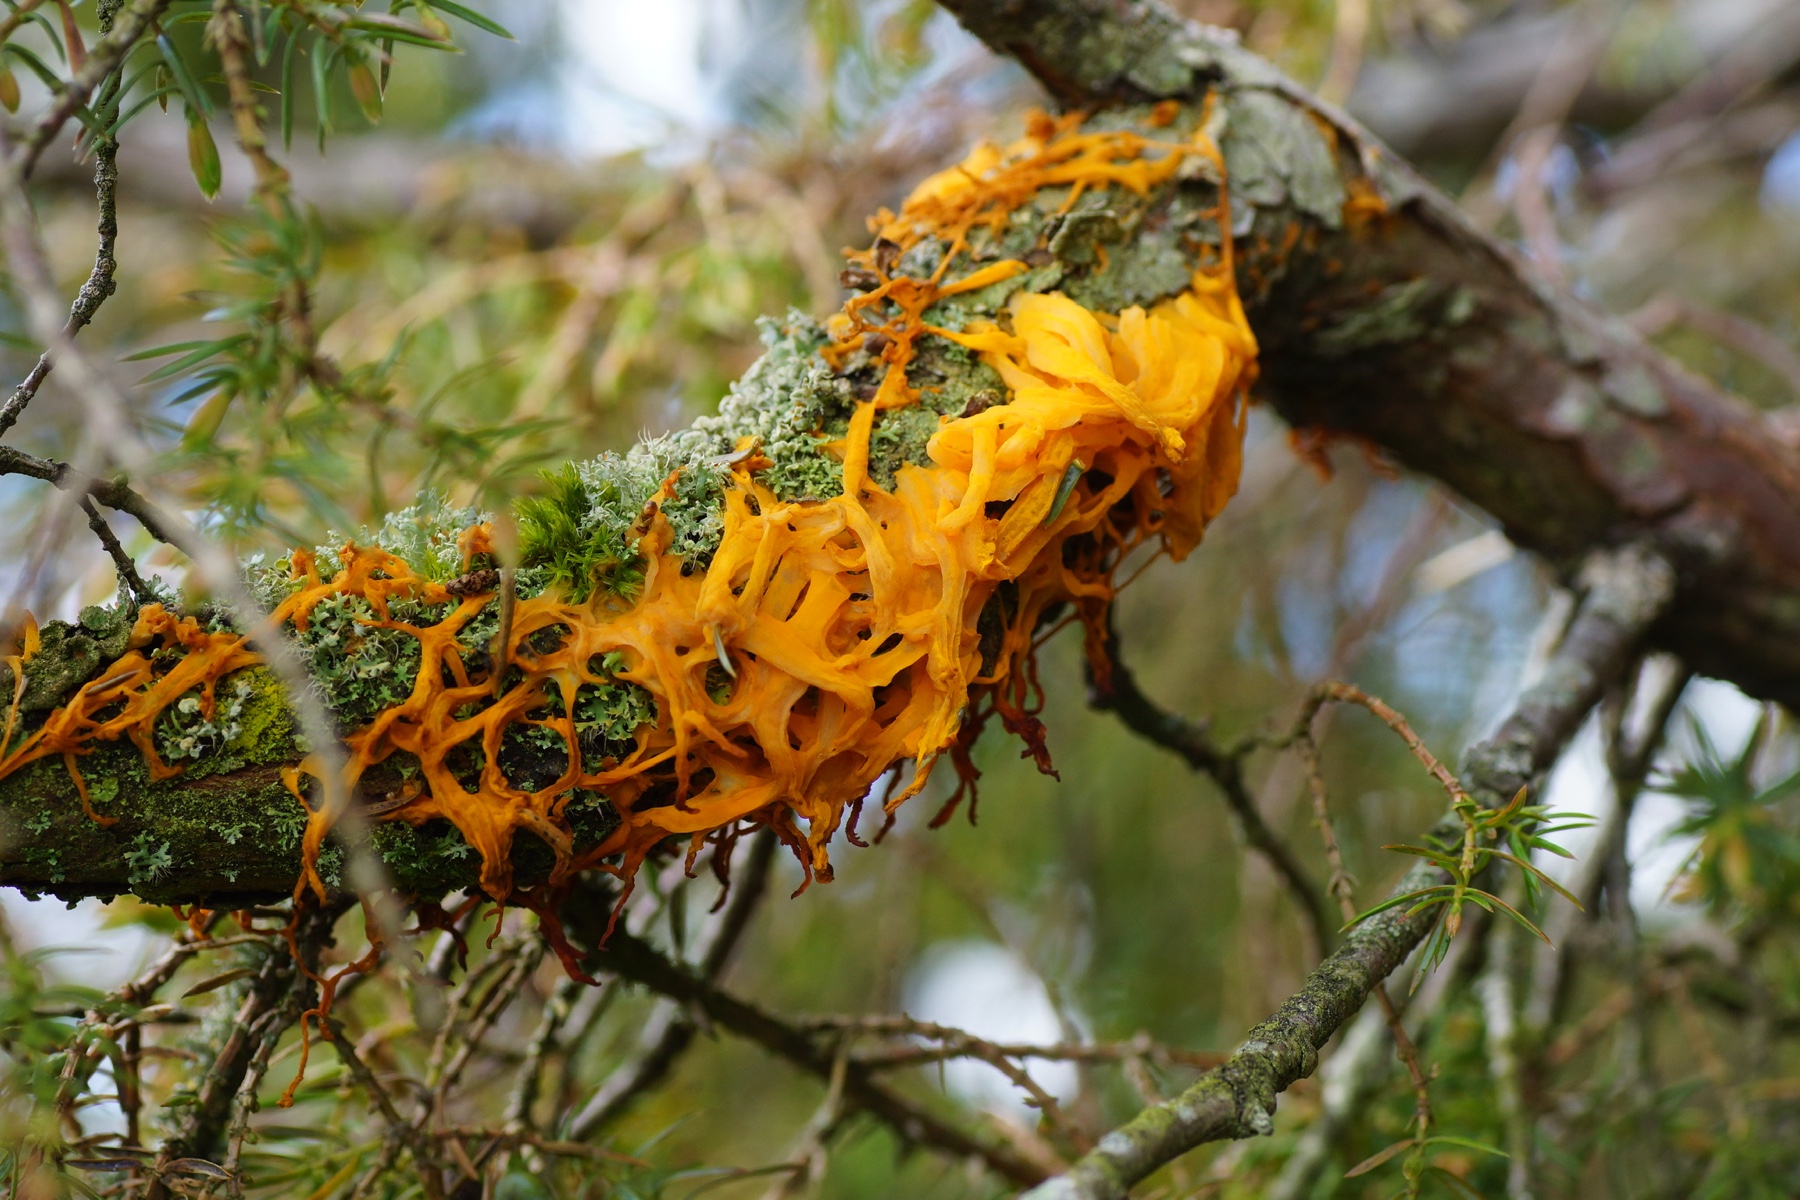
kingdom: Fungi
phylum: Basidiomycota
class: Pucciniomycetes
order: Pucciniales
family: Gymnosporangiaceae
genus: Gymnosporangium
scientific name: Gymnosporangium clavariiforme
